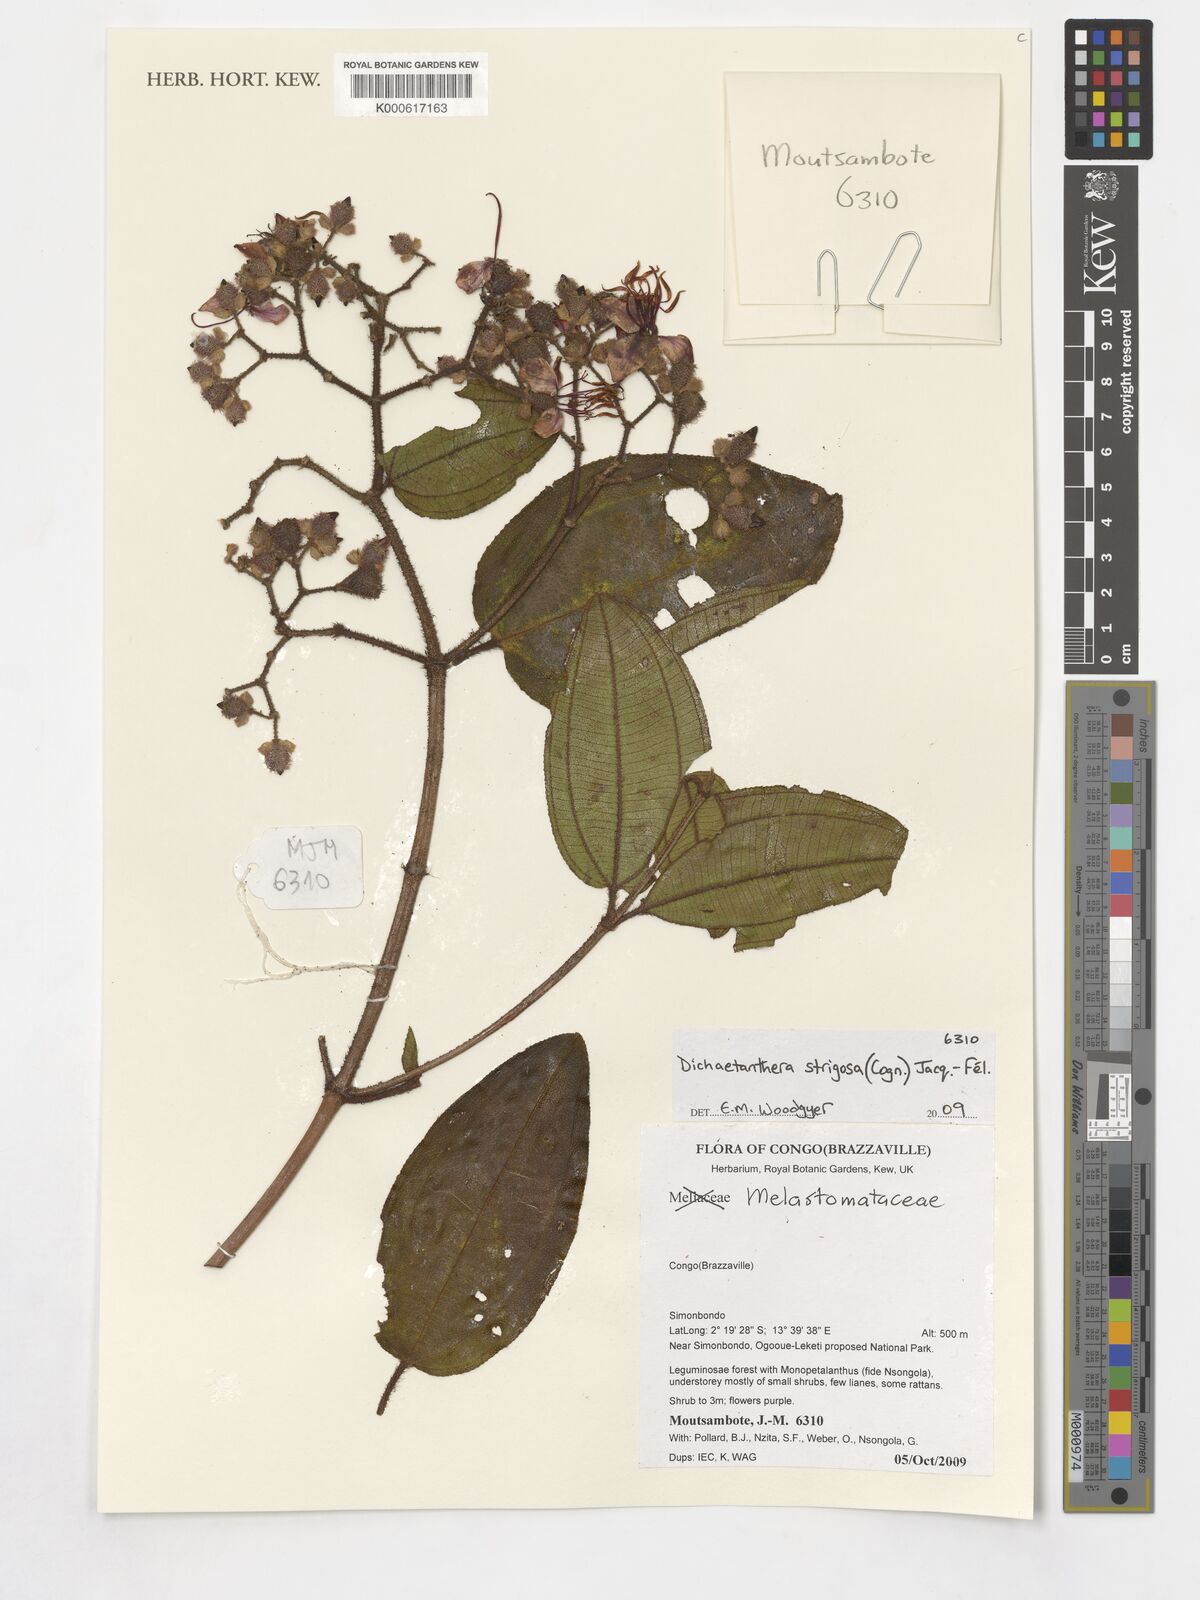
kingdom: Plantae
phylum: Tracheophyta
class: Magnoliopsida
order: Myrtales
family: Melastomataceae
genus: Dichaetanthera
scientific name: Dichaetanthera strigosa
